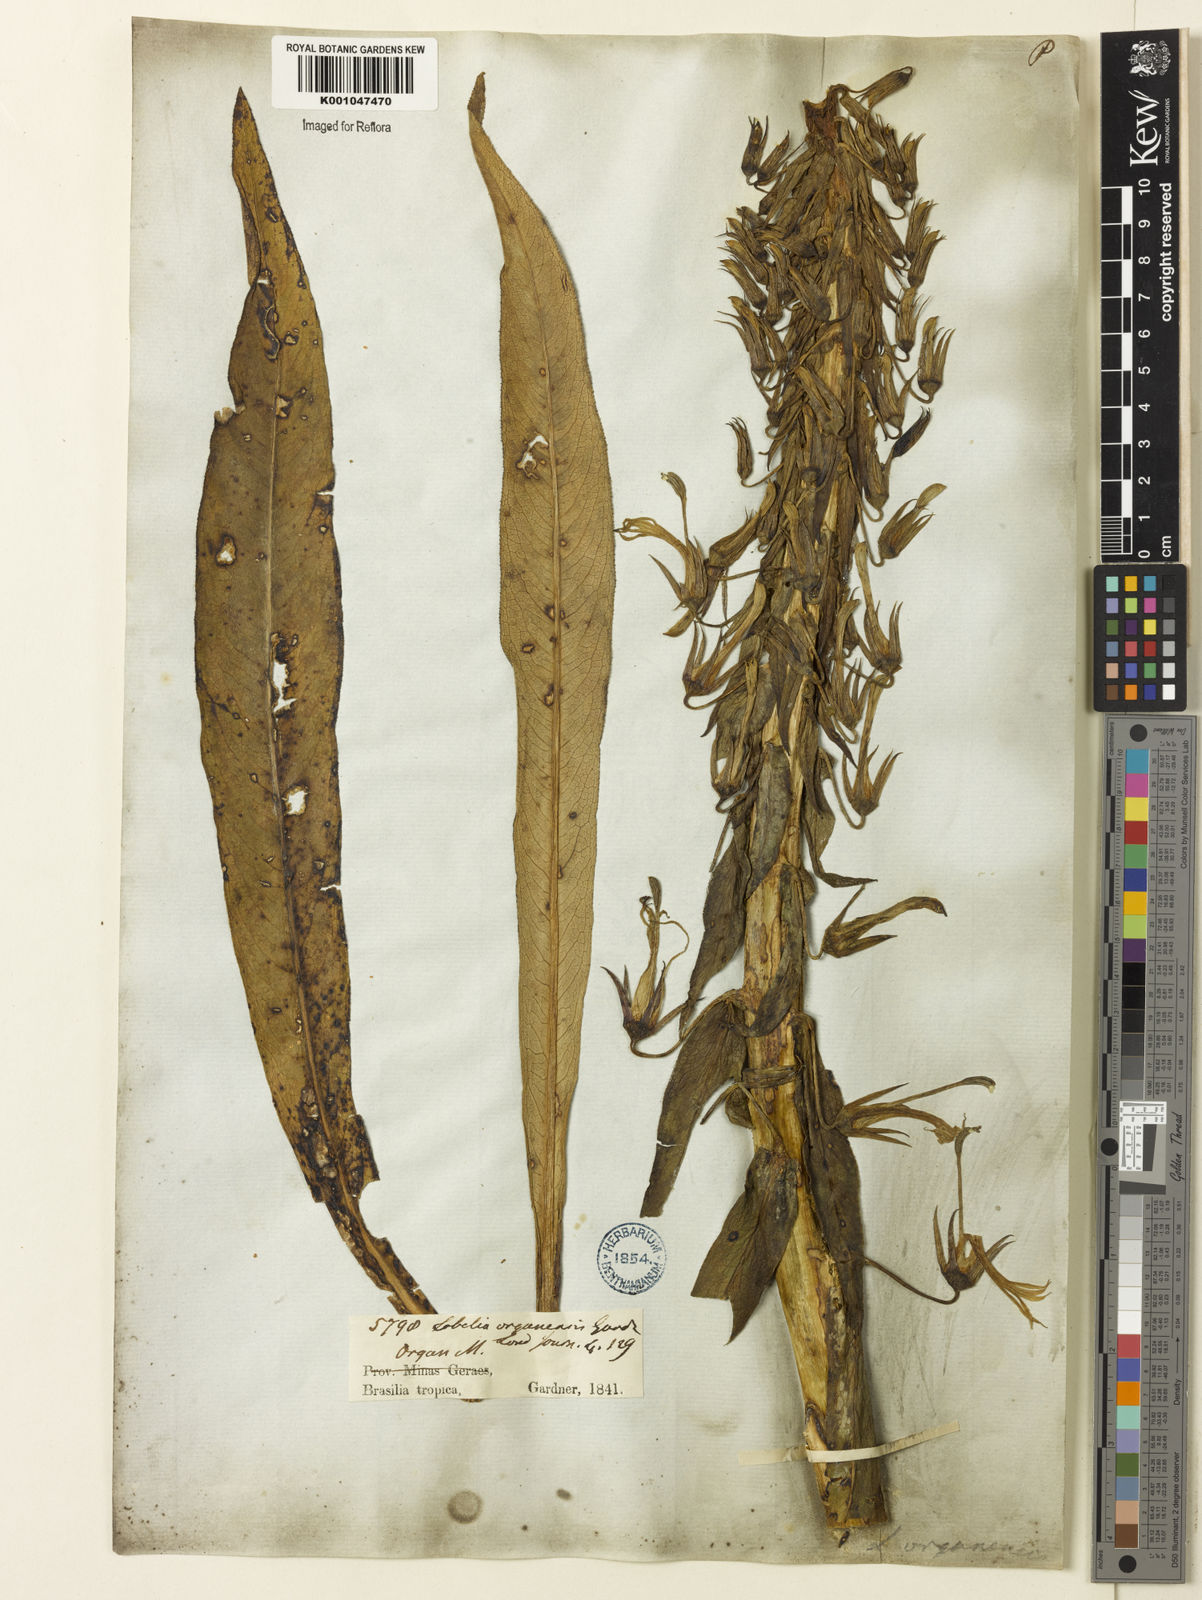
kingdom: Plantae
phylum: Tracheophyta
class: Magnoliopsida
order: Asterales
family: Campanulaceae
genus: Lobelia
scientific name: Lobelia organensis
